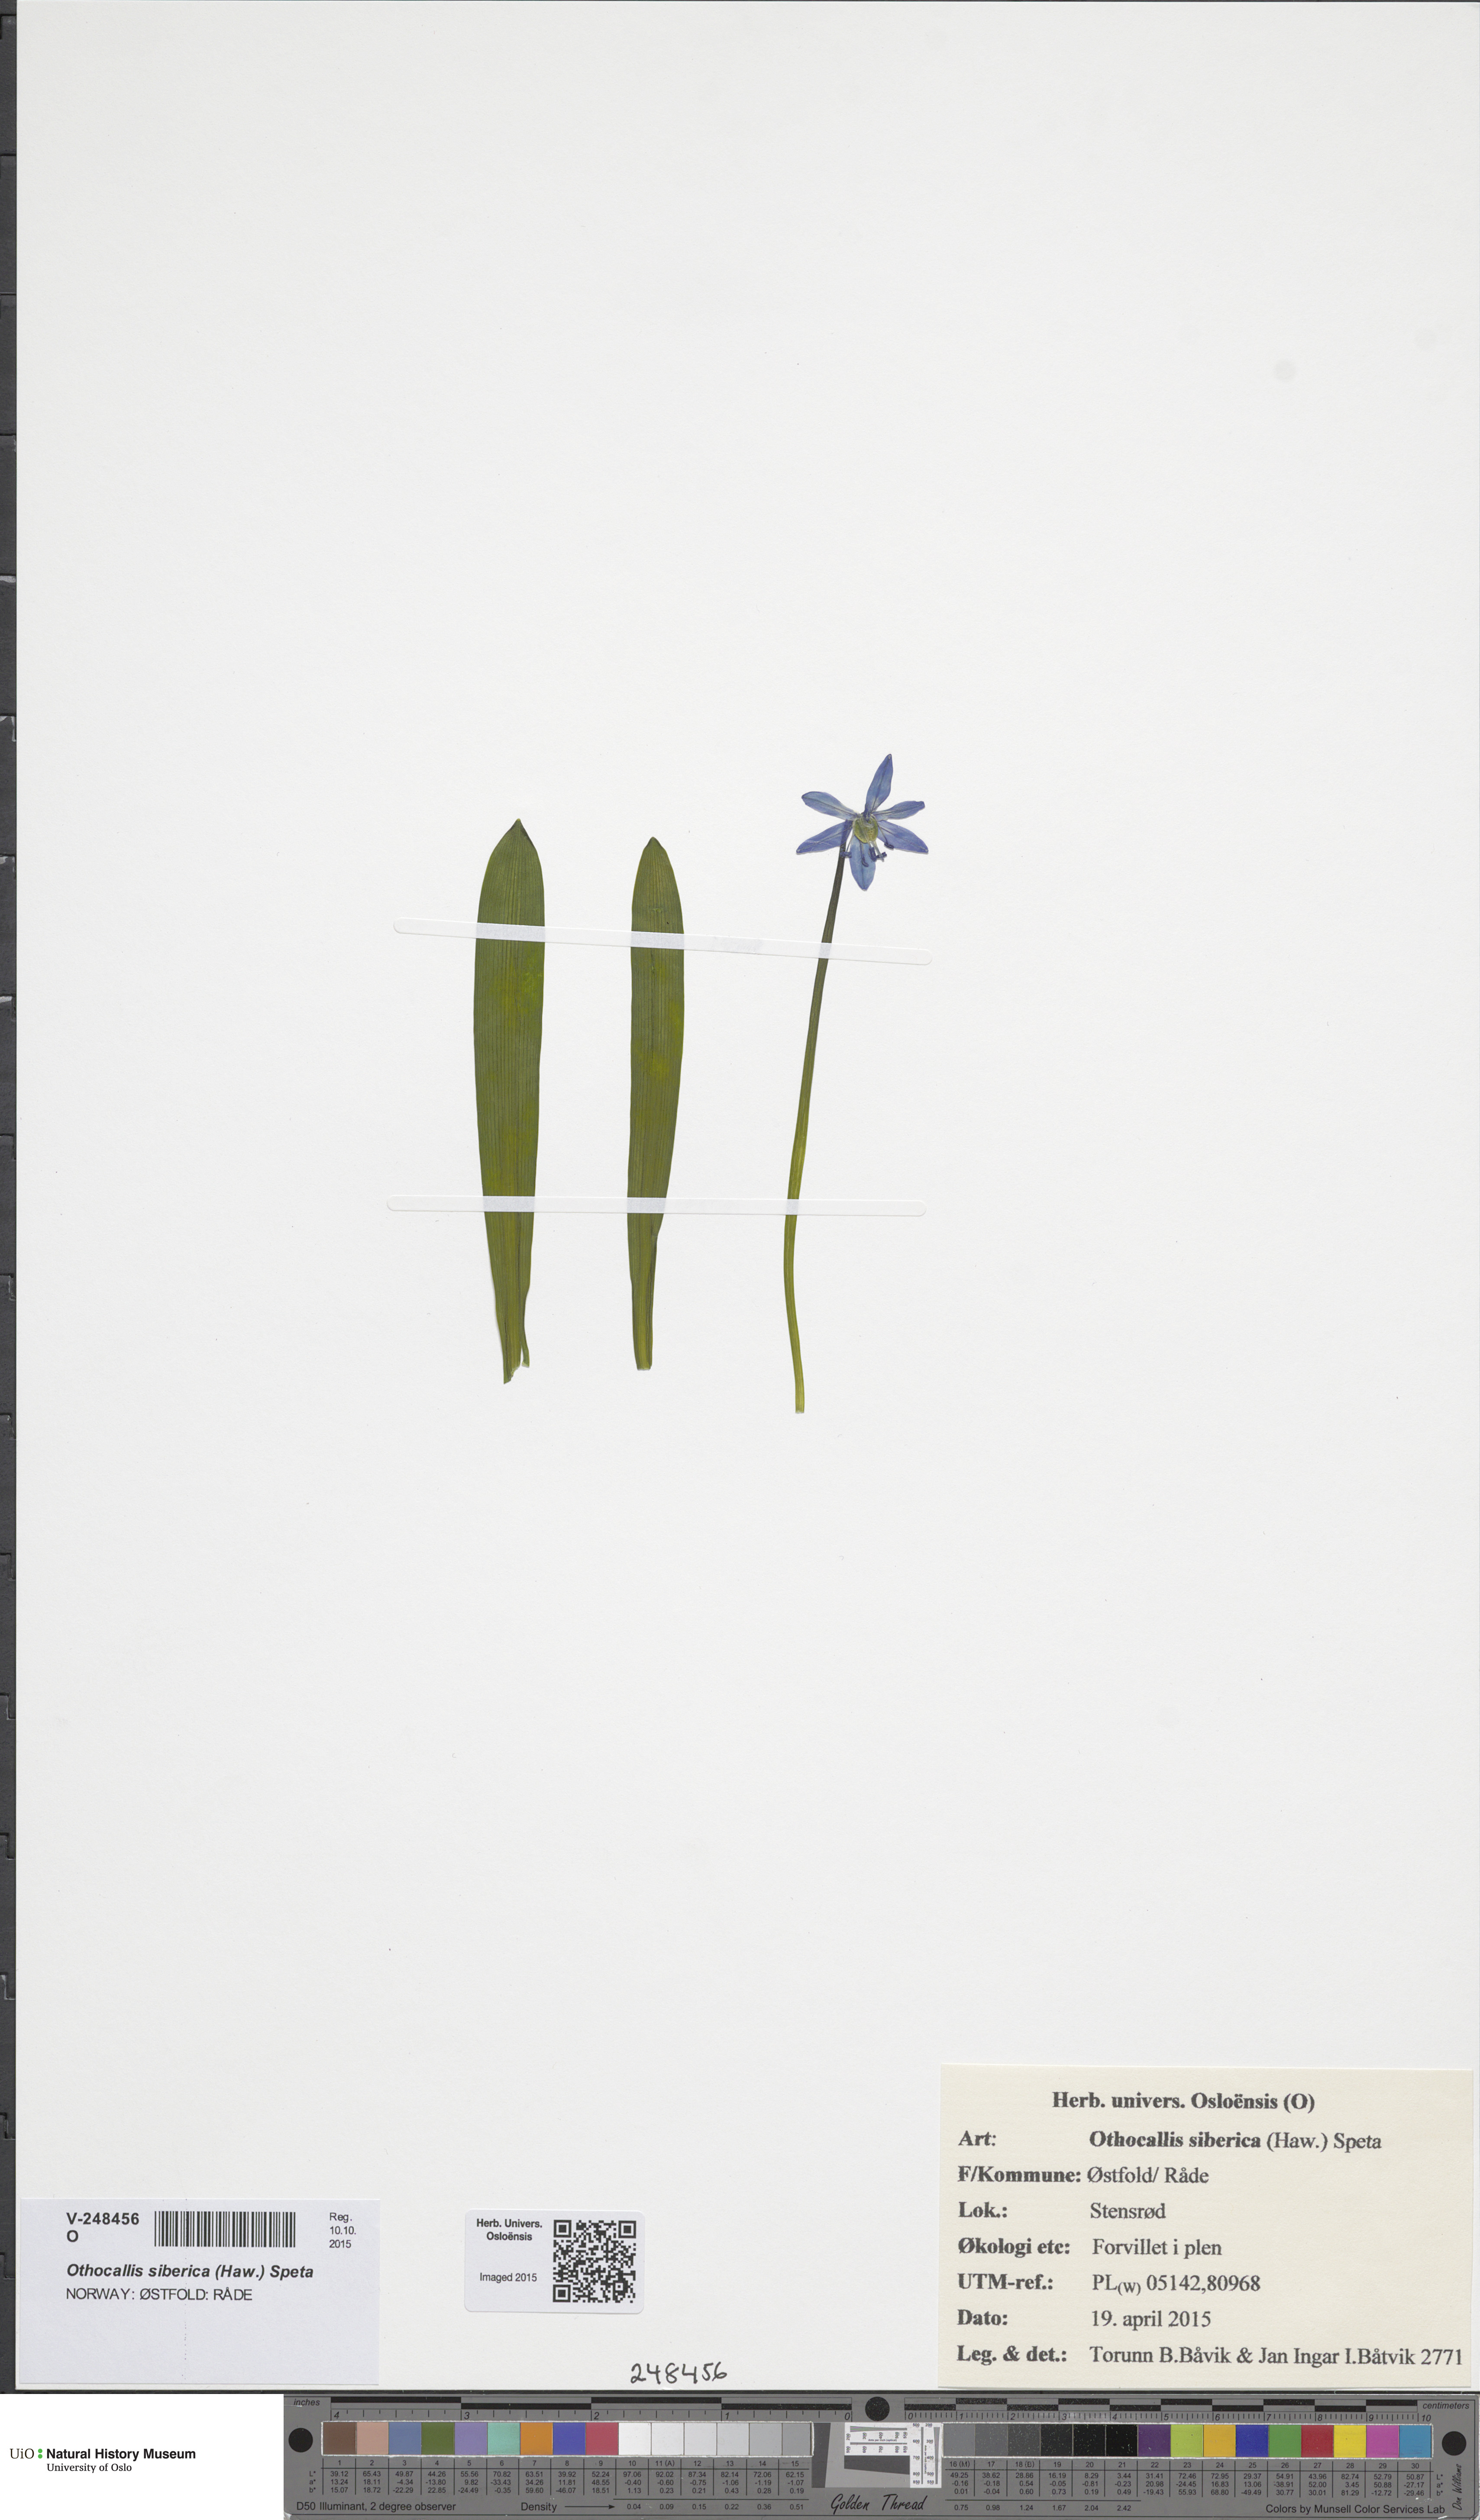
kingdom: Plantae
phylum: Tracheophyta
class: Liliopsida
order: Asparagales
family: Asparagaceae
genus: Scilla
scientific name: Scilla siberica
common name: Siberian squill
